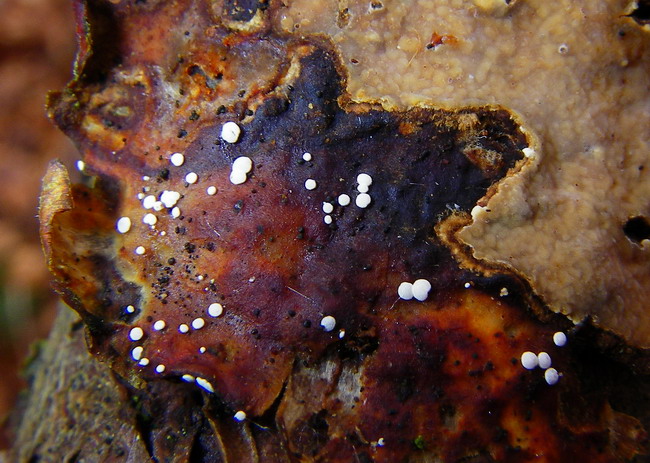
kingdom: Fungi
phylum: Ascomycota
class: Leotiomycetes
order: Helotiales
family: Hyaloscyphaceae
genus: Polydesmia
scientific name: Polydesmia pruinosa
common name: dunskive
